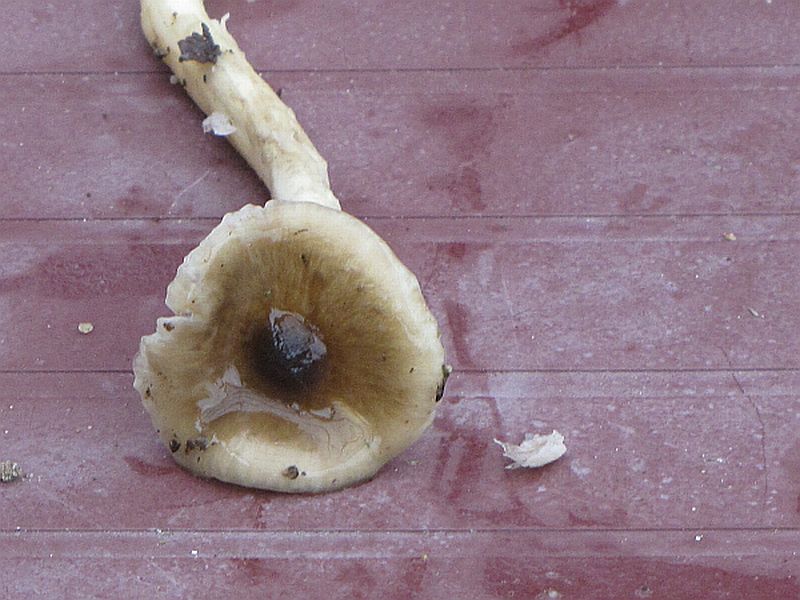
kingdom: Fungi
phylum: Basidiomycota
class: Agaricomycetes
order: Agaricales
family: Hygrophoraceae
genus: Hygrophorus
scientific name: Hygrophorus olivaceoalbus
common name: hvidbrun sneglehat
